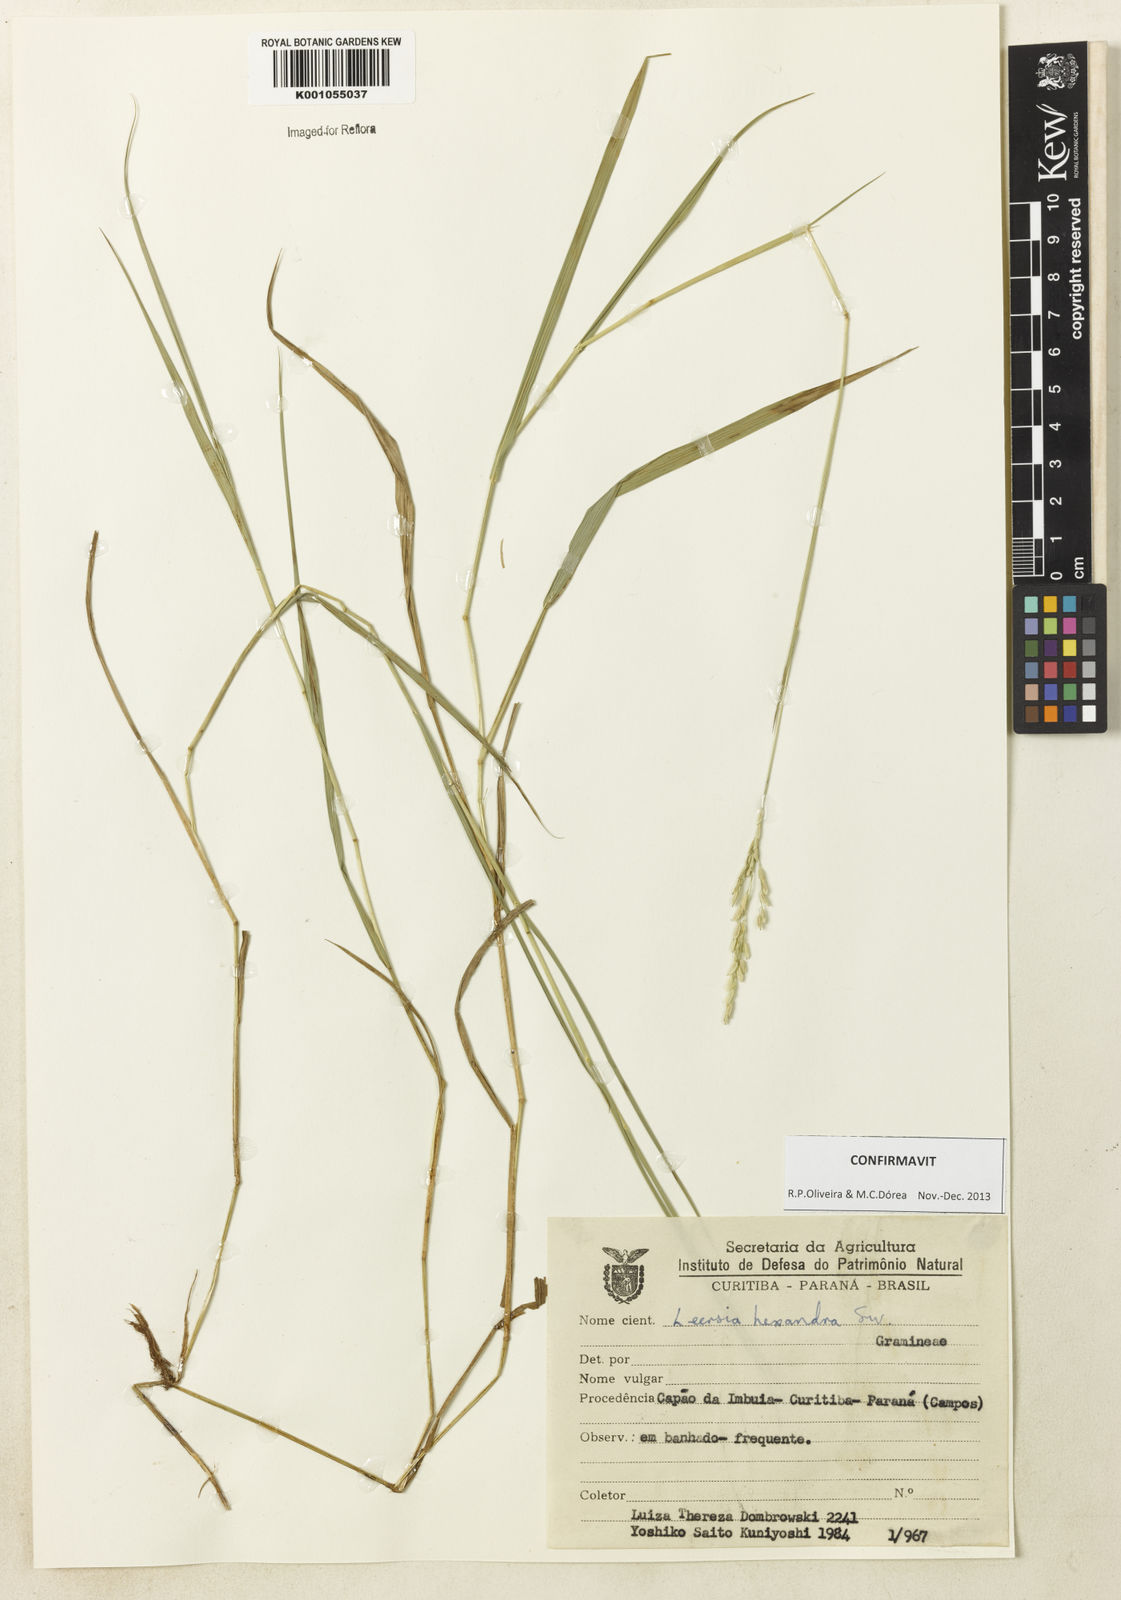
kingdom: Plantae
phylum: Tracheophyta
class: Liliopsida
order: Poales
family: Poaceae
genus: Leersia
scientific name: Leersia hexandra
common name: Southern cut grass
